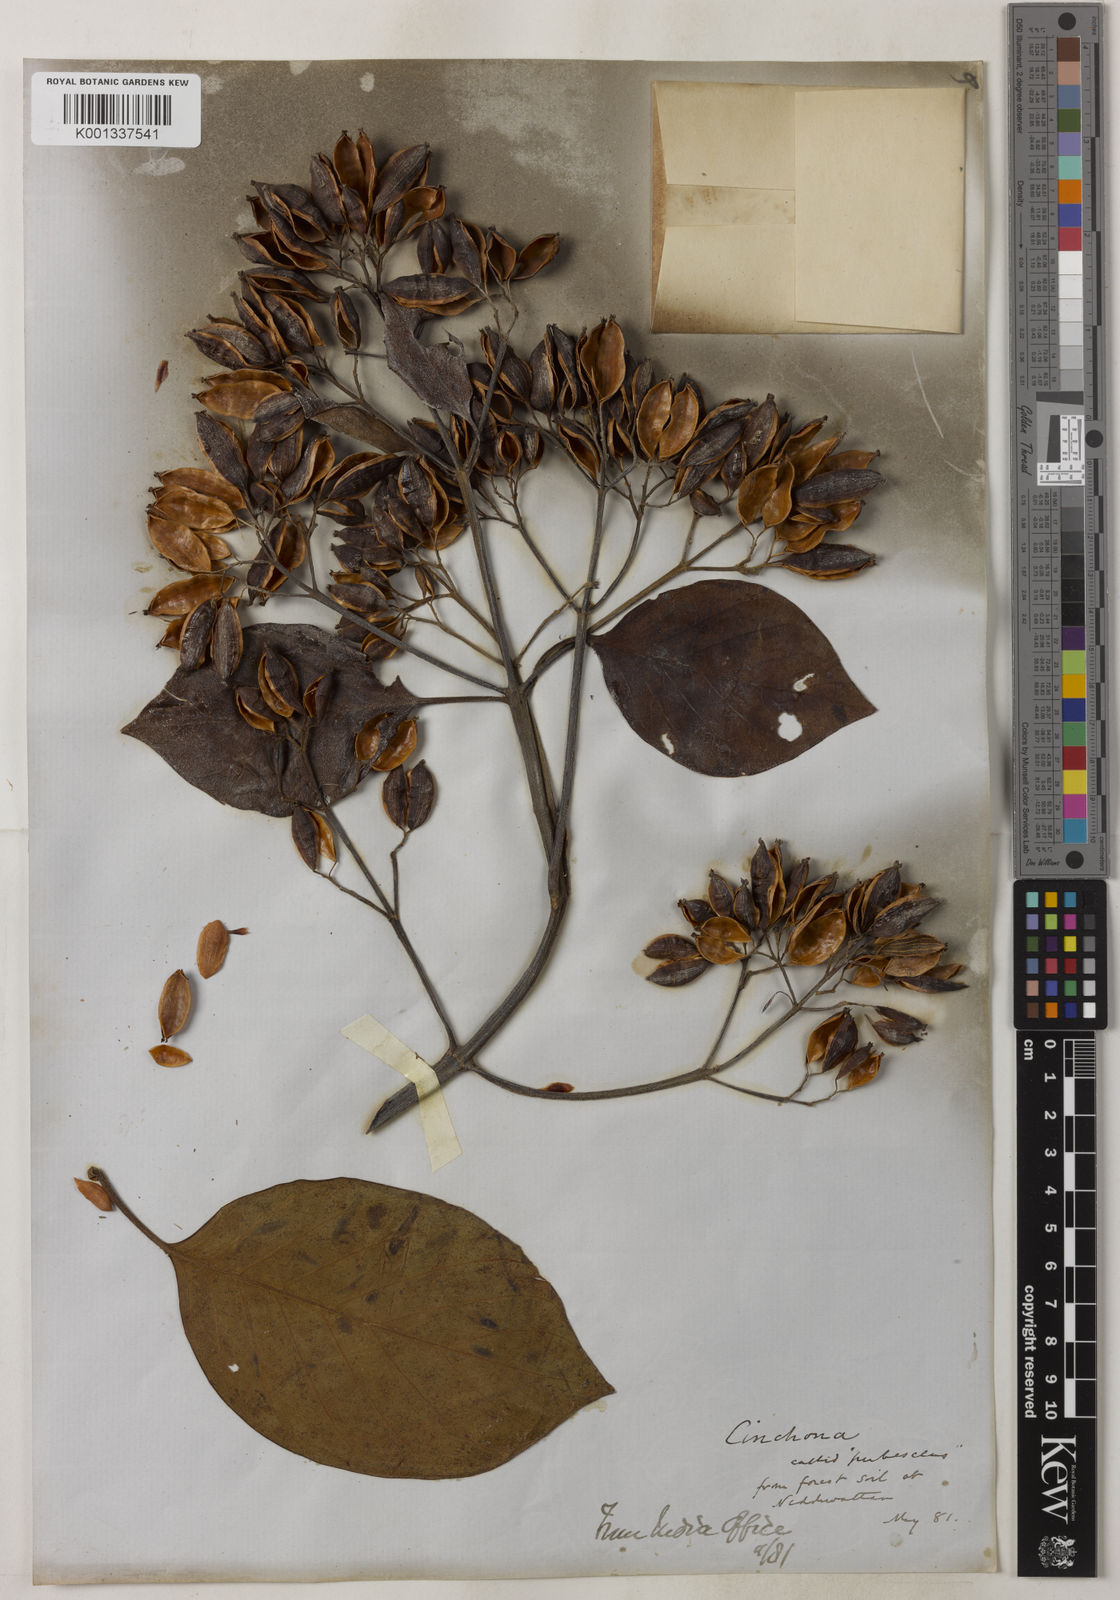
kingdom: Plantae
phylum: Tracheophyta
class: Magnoliopsida
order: Gentianales
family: Rubiaceae
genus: Cinchona
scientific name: Cinchona calisaya
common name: Ledgerbark
